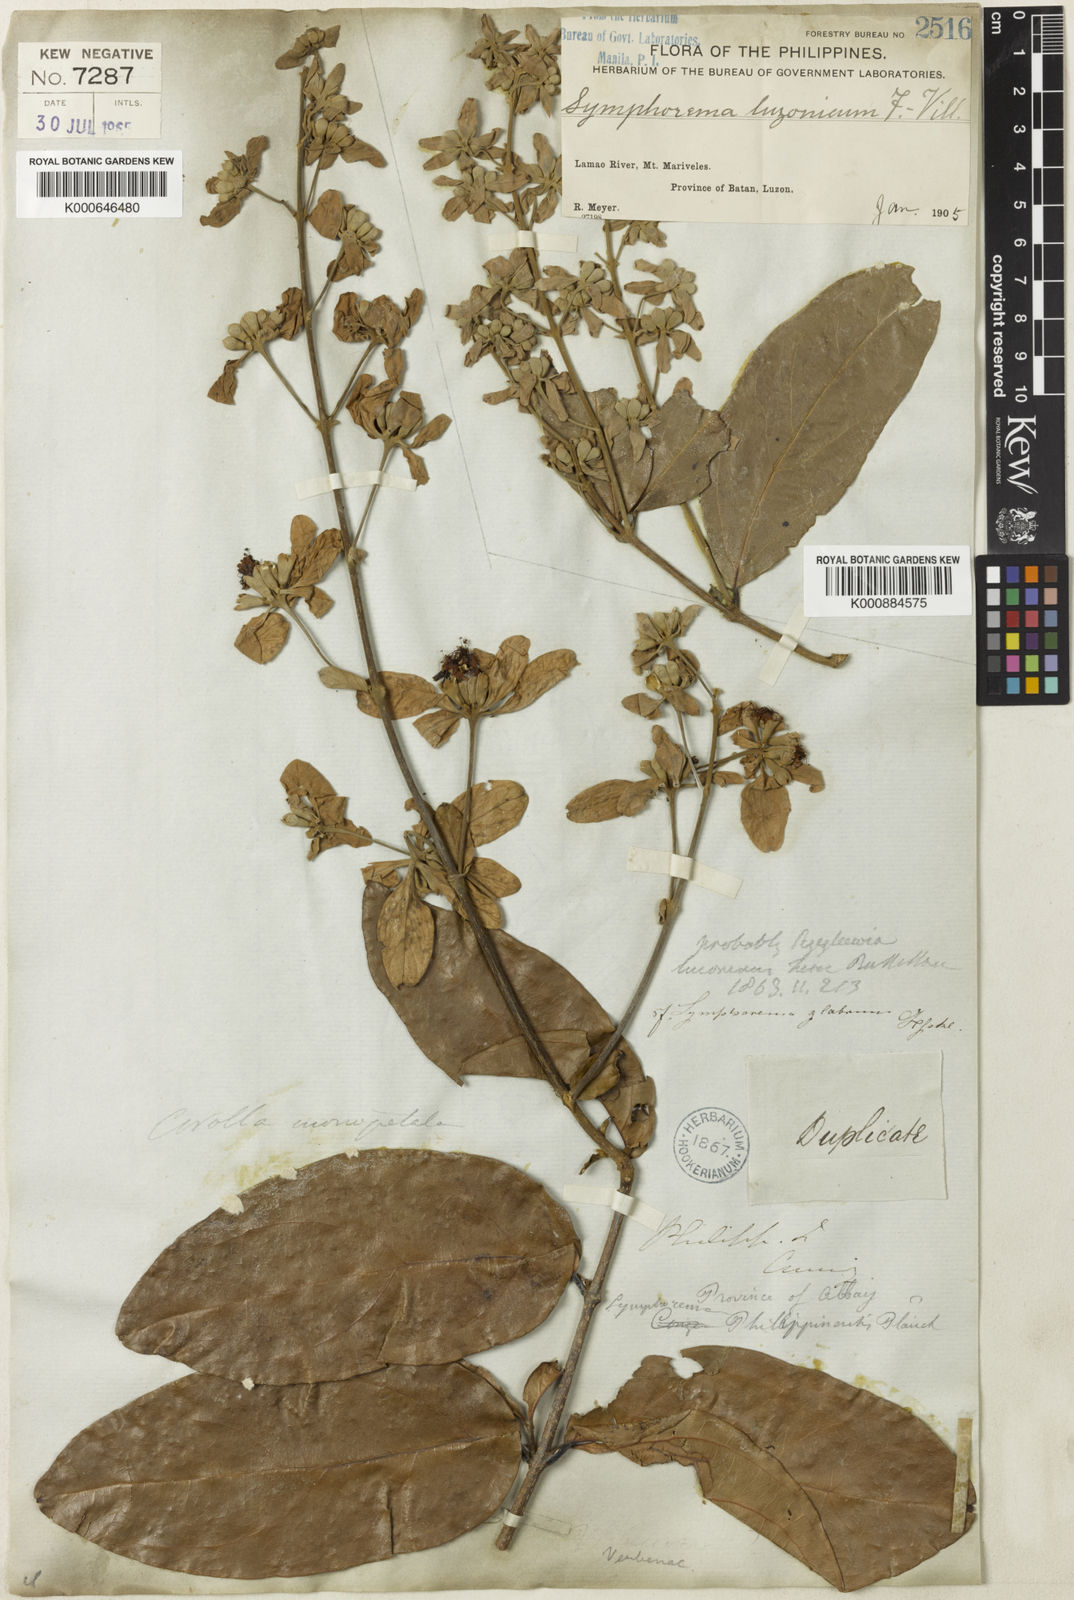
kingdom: Plantae
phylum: Tracheophyta
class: Magnoliopsida
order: Lamiales
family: Lamiaceae
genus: Symphorema
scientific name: Symphorema luzonicum
